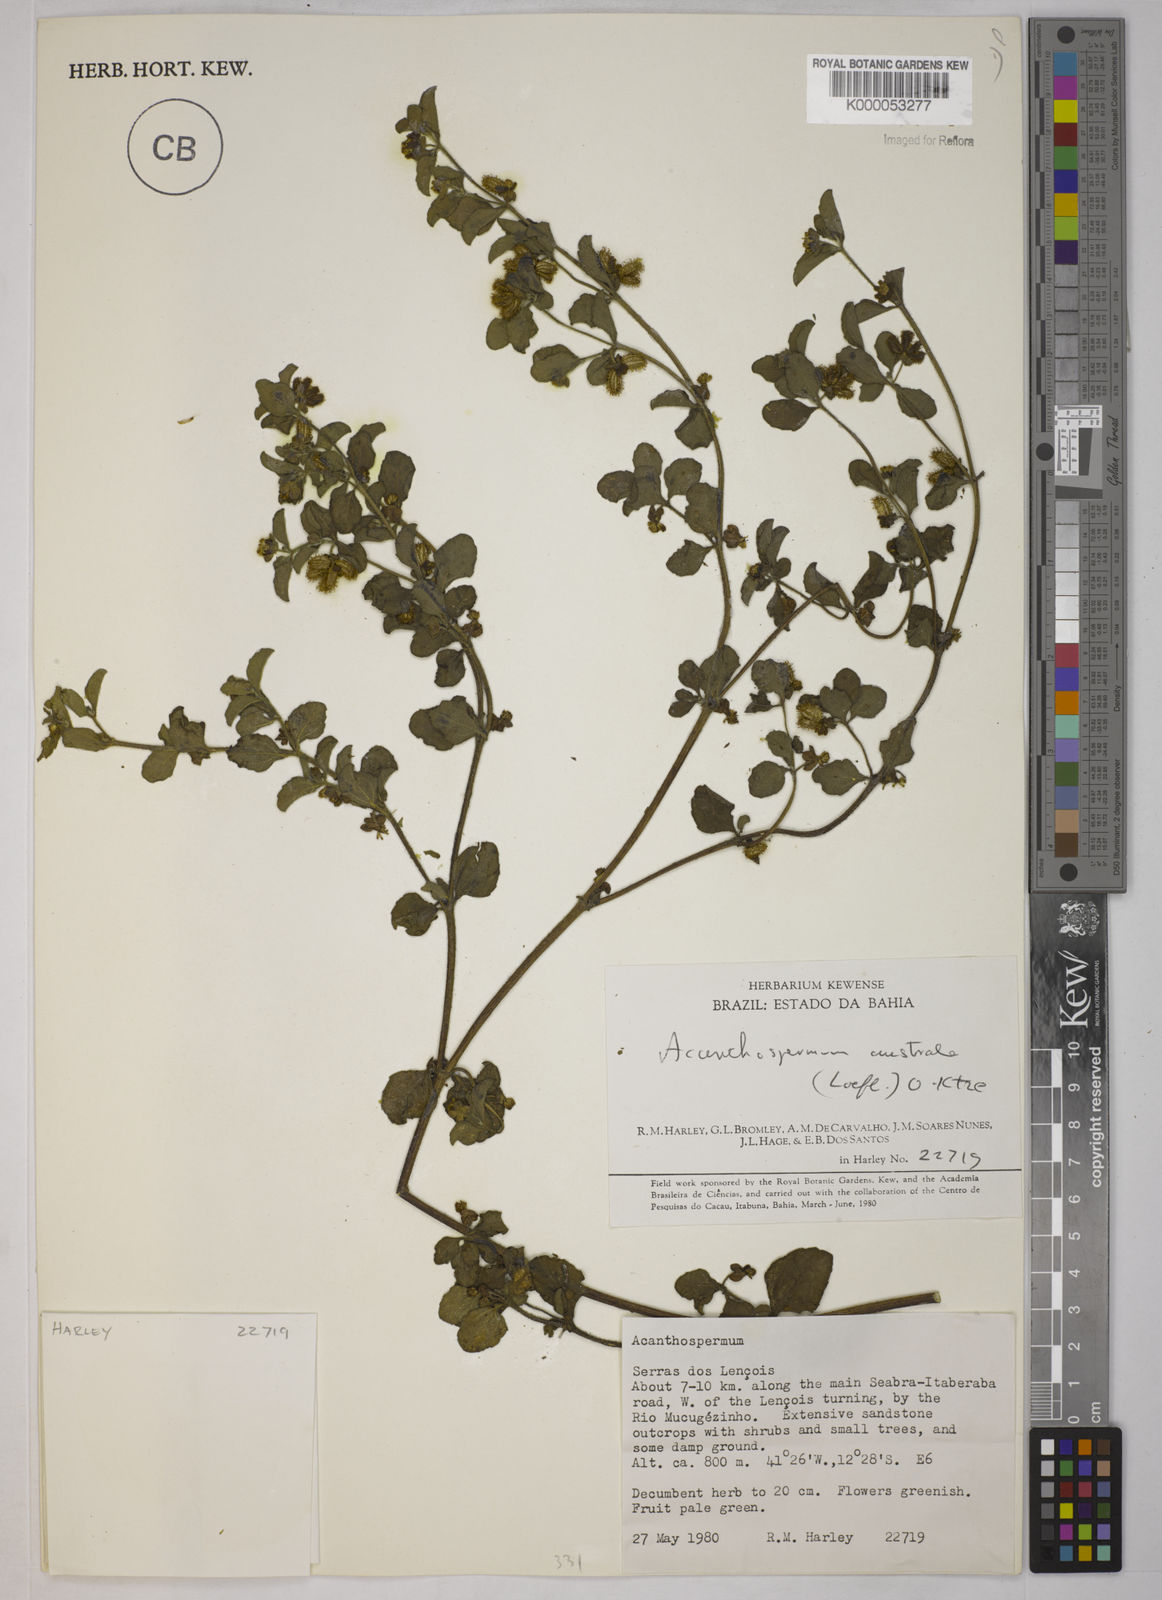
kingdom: Plantae
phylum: Tracheophyta
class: Magnoliopsida
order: Asterales
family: Asteraceae
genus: Acanthospermum
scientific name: Acanthospermum australe
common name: Paraguayan starbur
